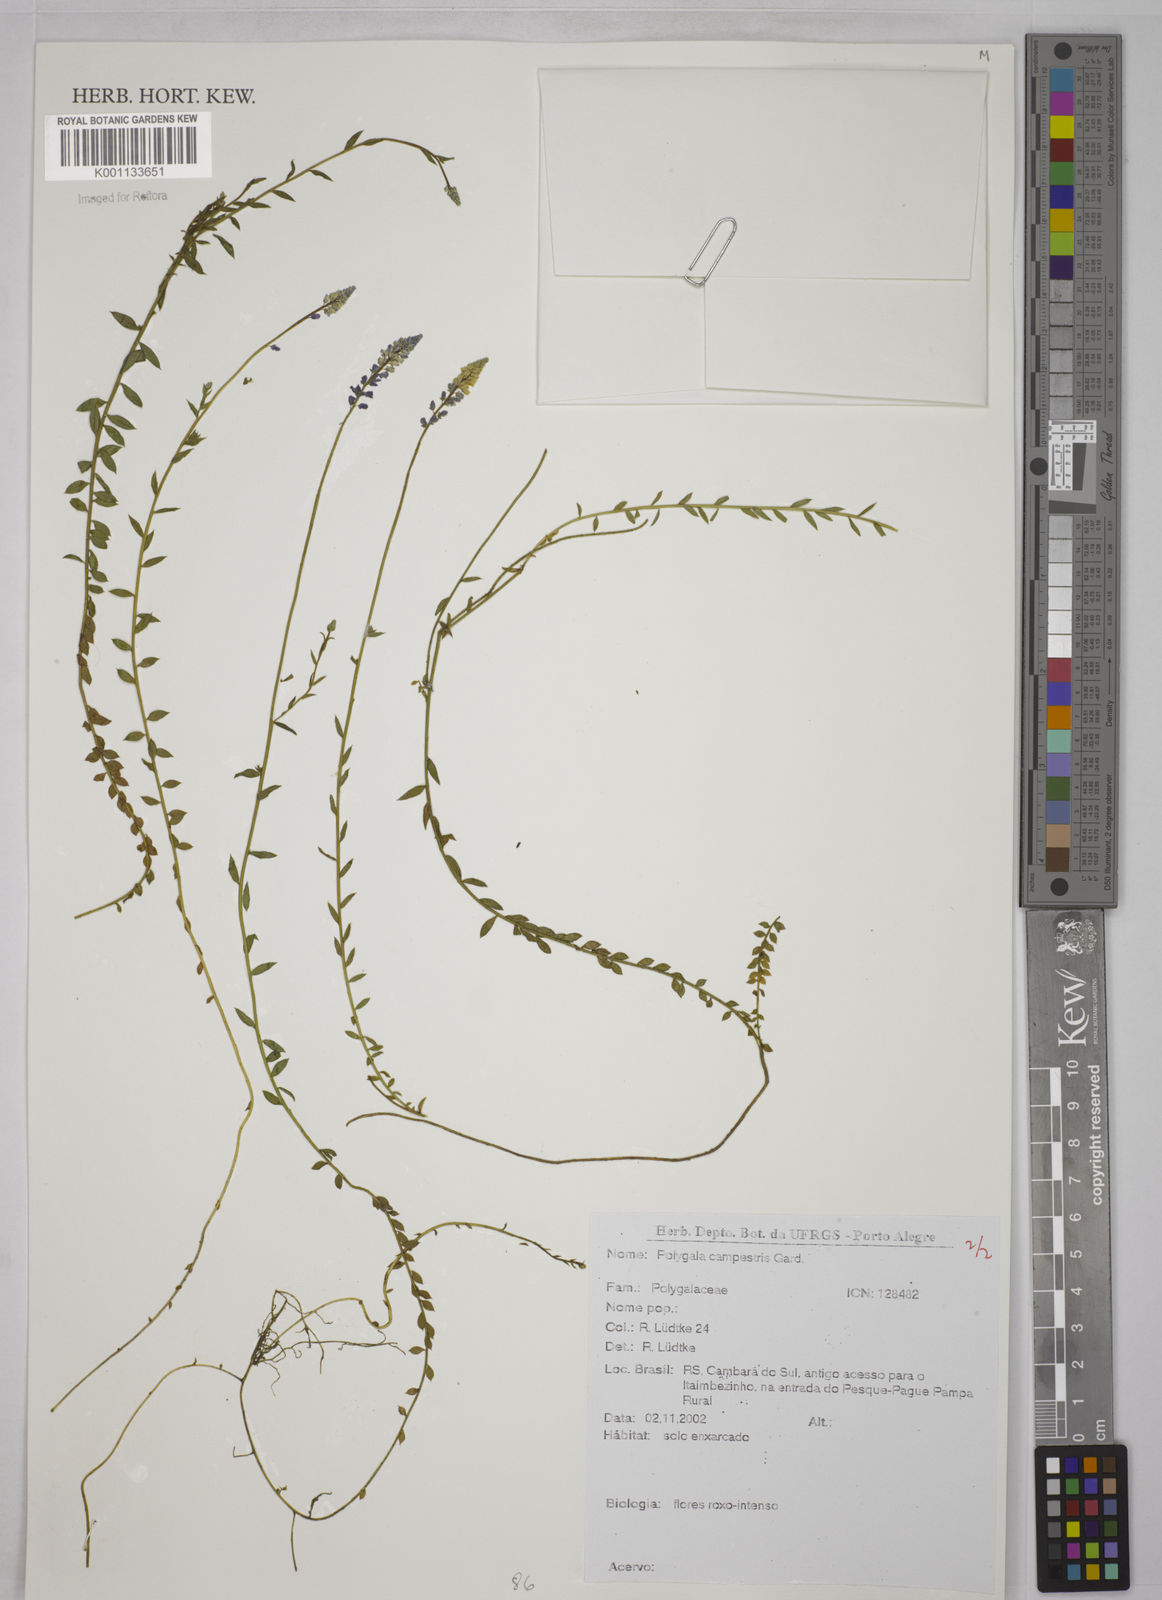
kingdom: Plantae
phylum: Tracheophyta
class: Magnoliopsida
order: Fabales
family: Polygalaceae
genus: Polygala
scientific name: Polygala campestris
